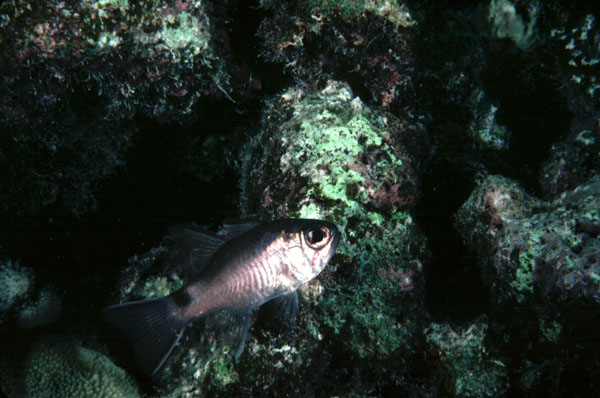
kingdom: Animalia
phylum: Chordata
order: Perciformes
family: Apogonidae
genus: Nectamia
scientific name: Nectamia savayensis
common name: Samoan cardinalfish
